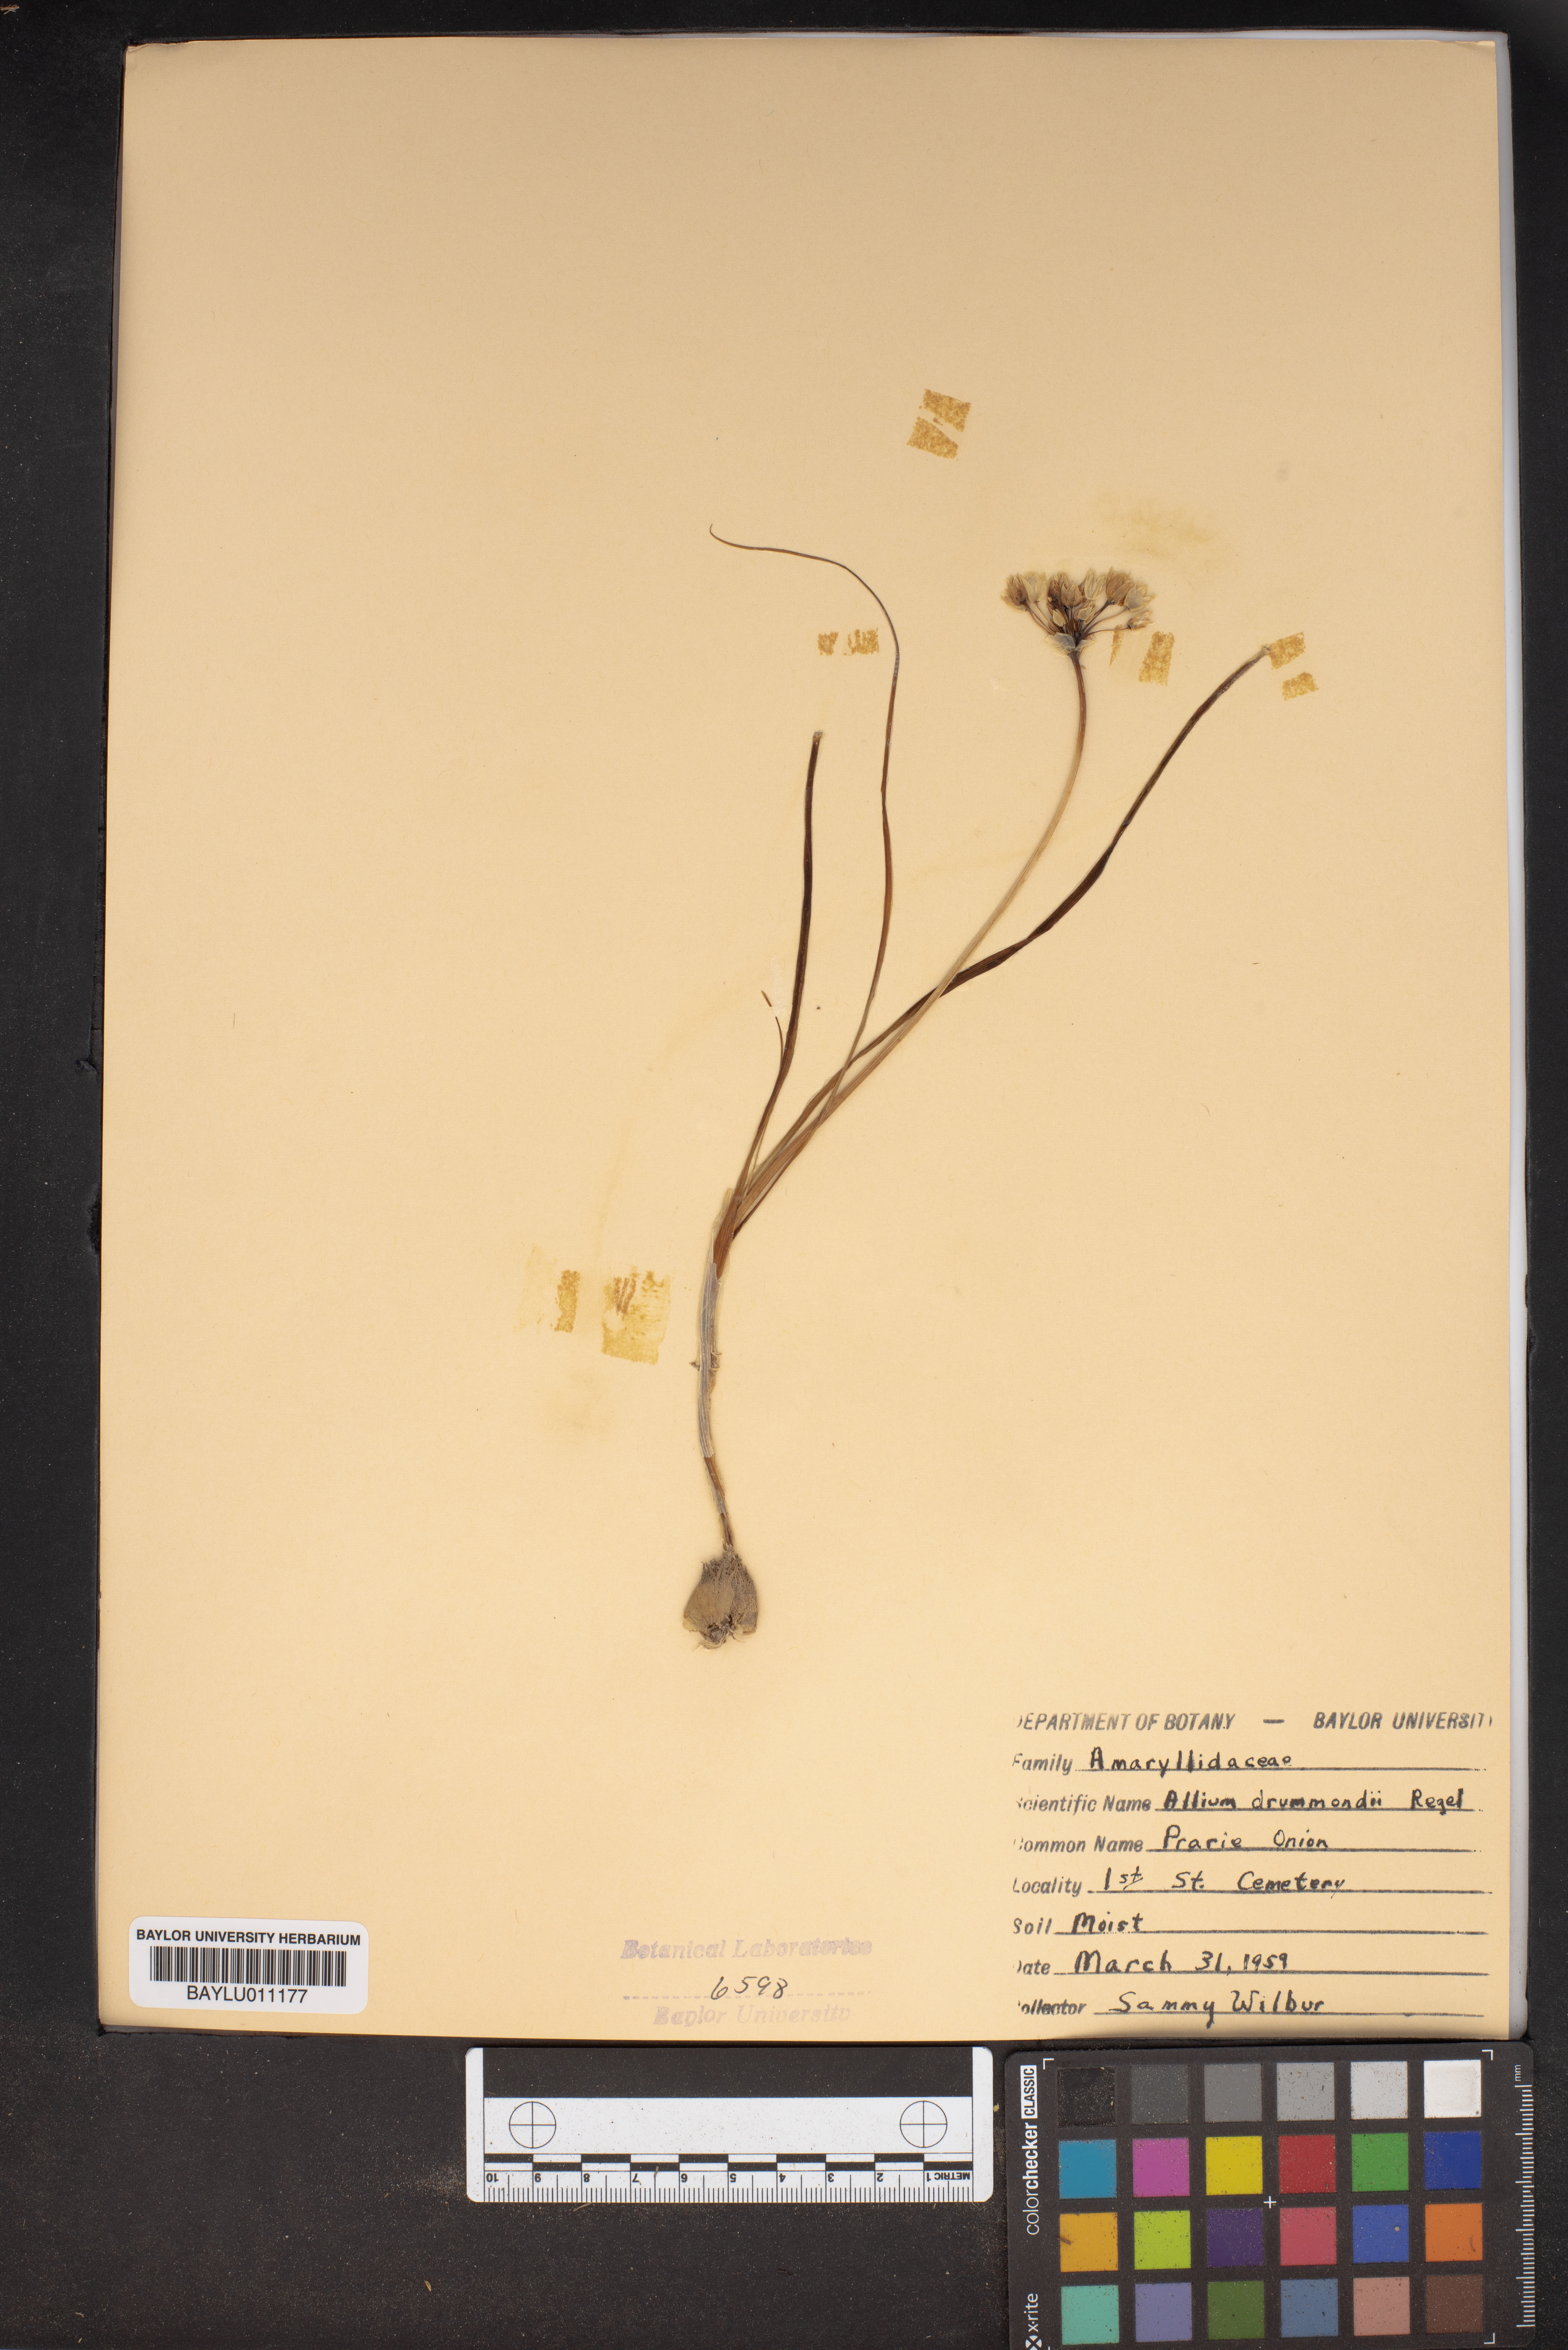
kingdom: Plantae
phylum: Tracheophyta
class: Liliopsida
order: Asparagales
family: Amaryllidaceae
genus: Allium
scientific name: Allium drummondii
